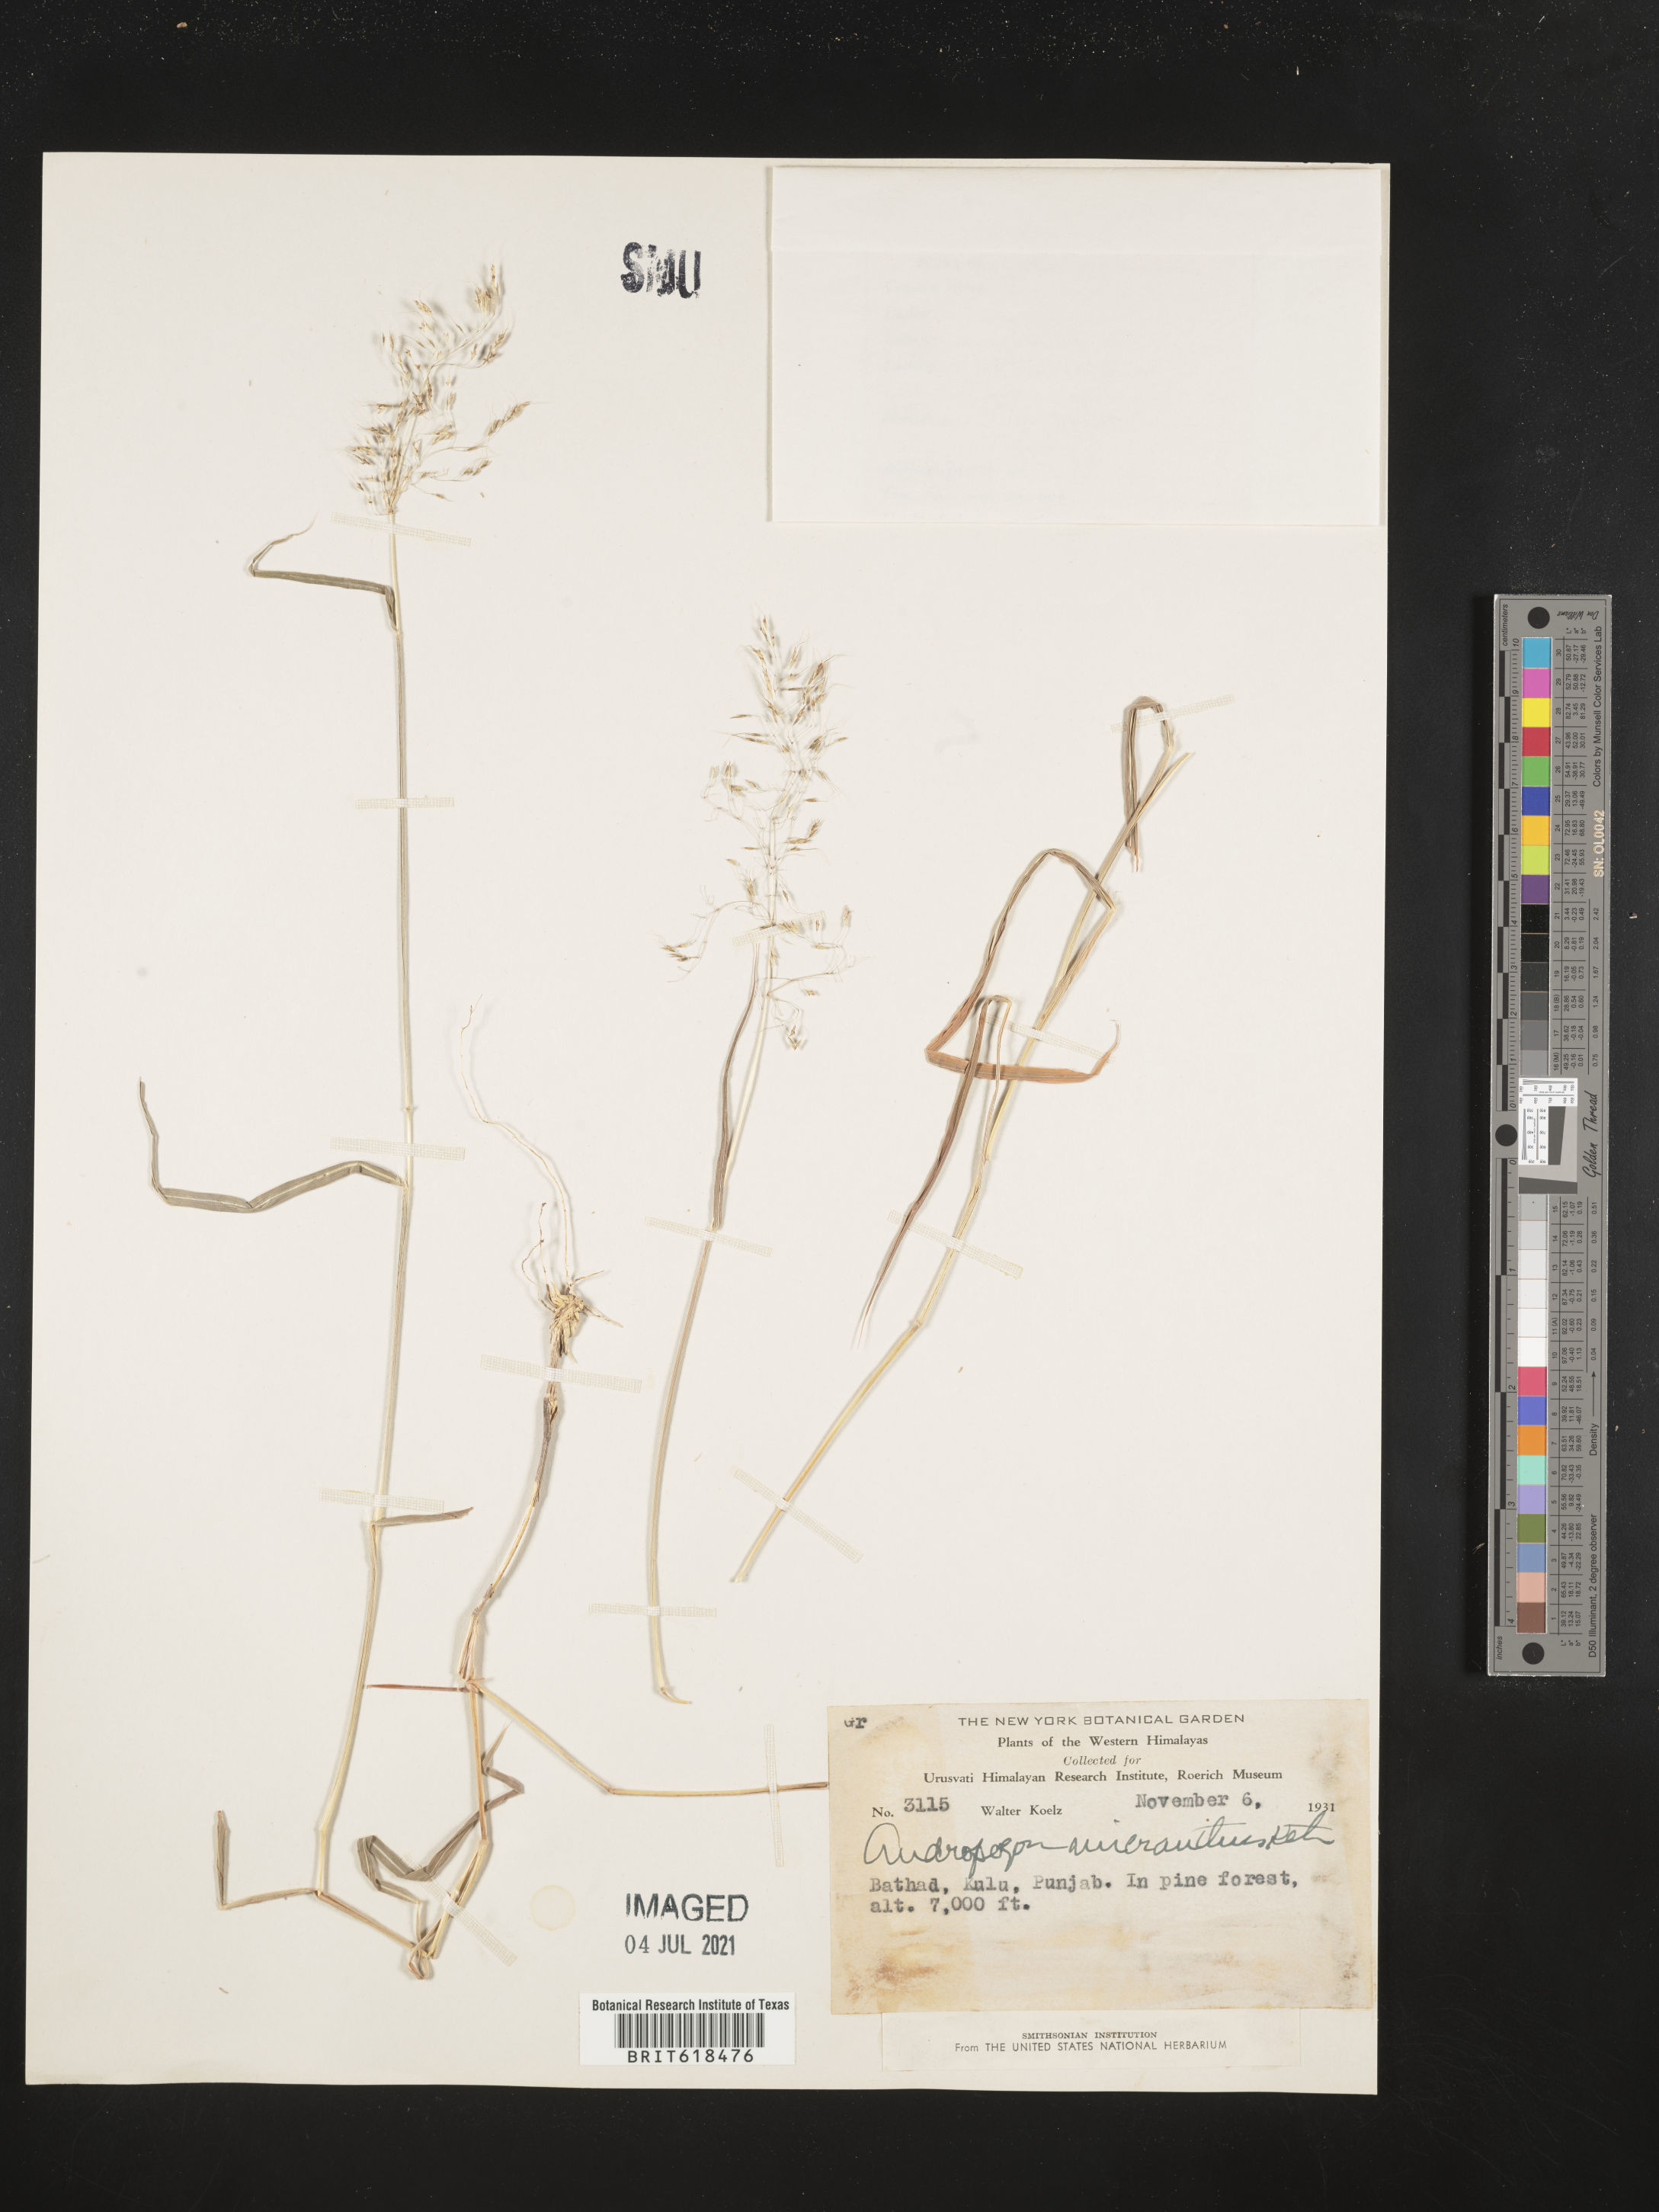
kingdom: Plantae
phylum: Tracheophyta
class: Liliopsida
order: Poales
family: Poaceae
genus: Capillipedium
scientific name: Capillipedium parviflorum
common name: Golden-beard
